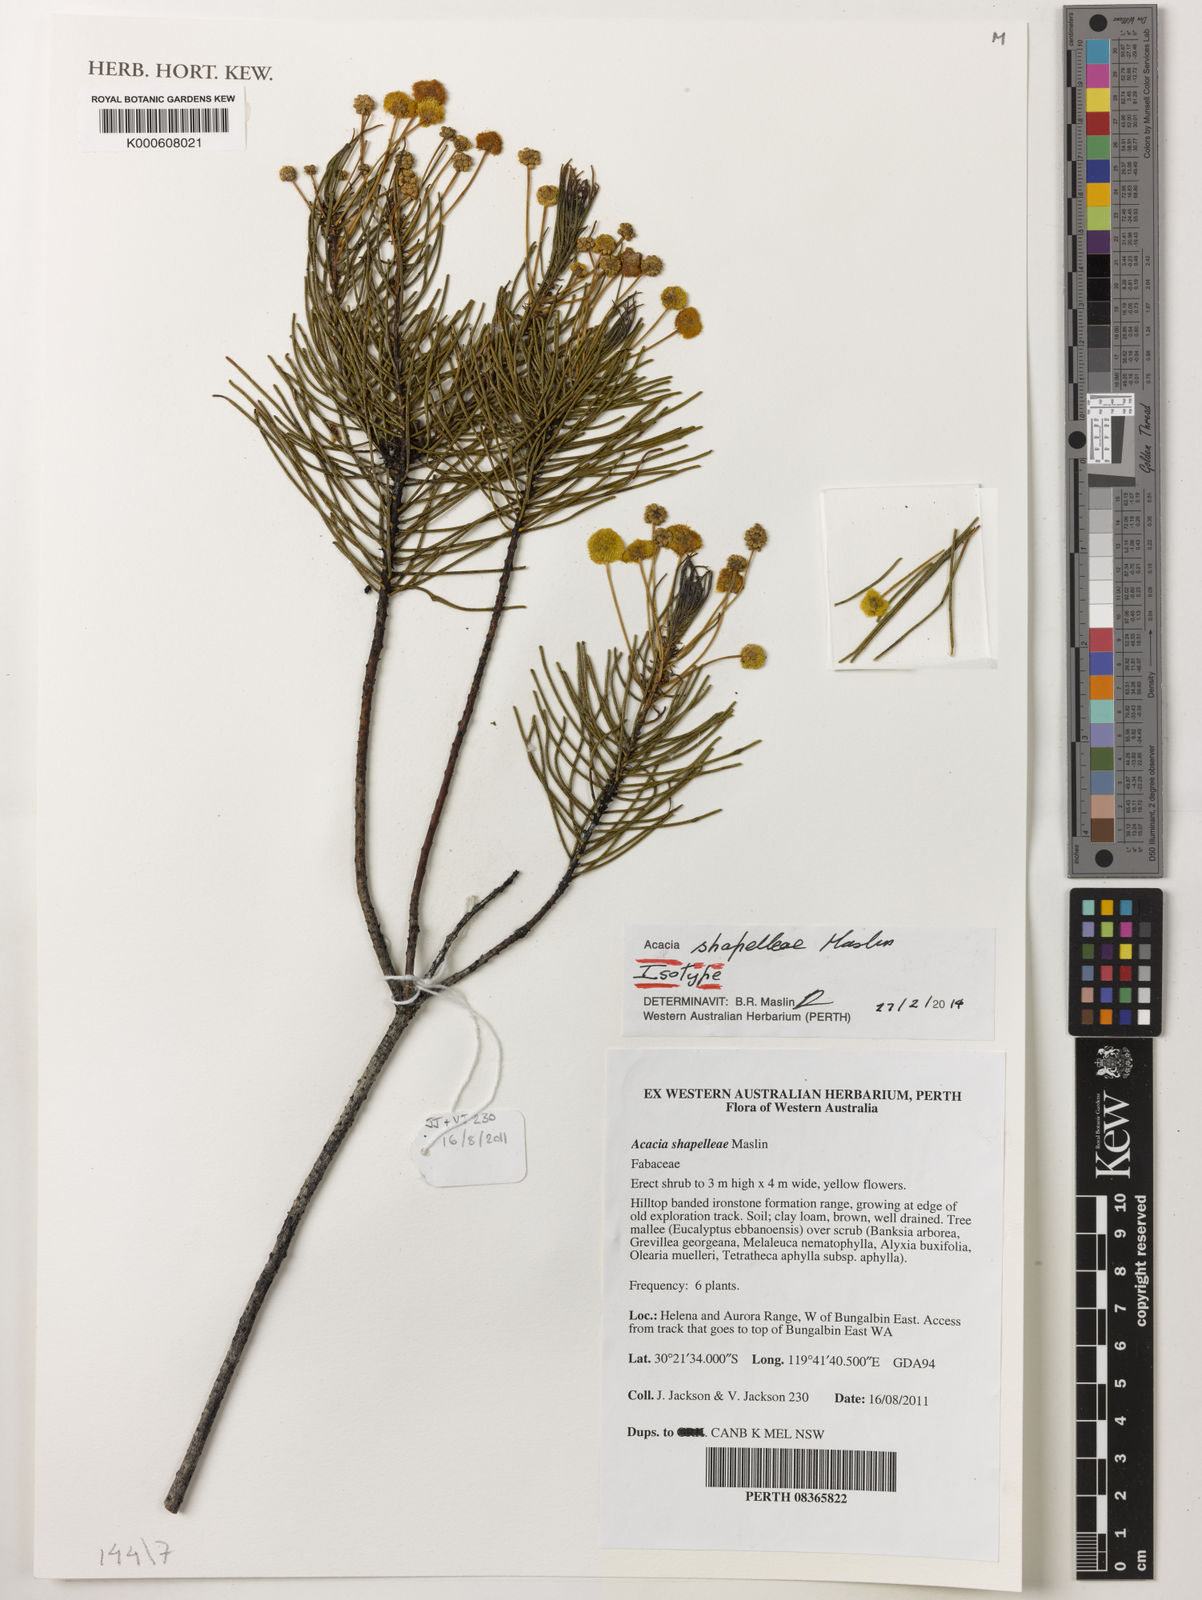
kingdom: Plantae
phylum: Tracheophyta
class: Magnoliopsida
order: Fabales
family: Fabaceae
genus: Acacia
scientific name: Acacia shapelleae
